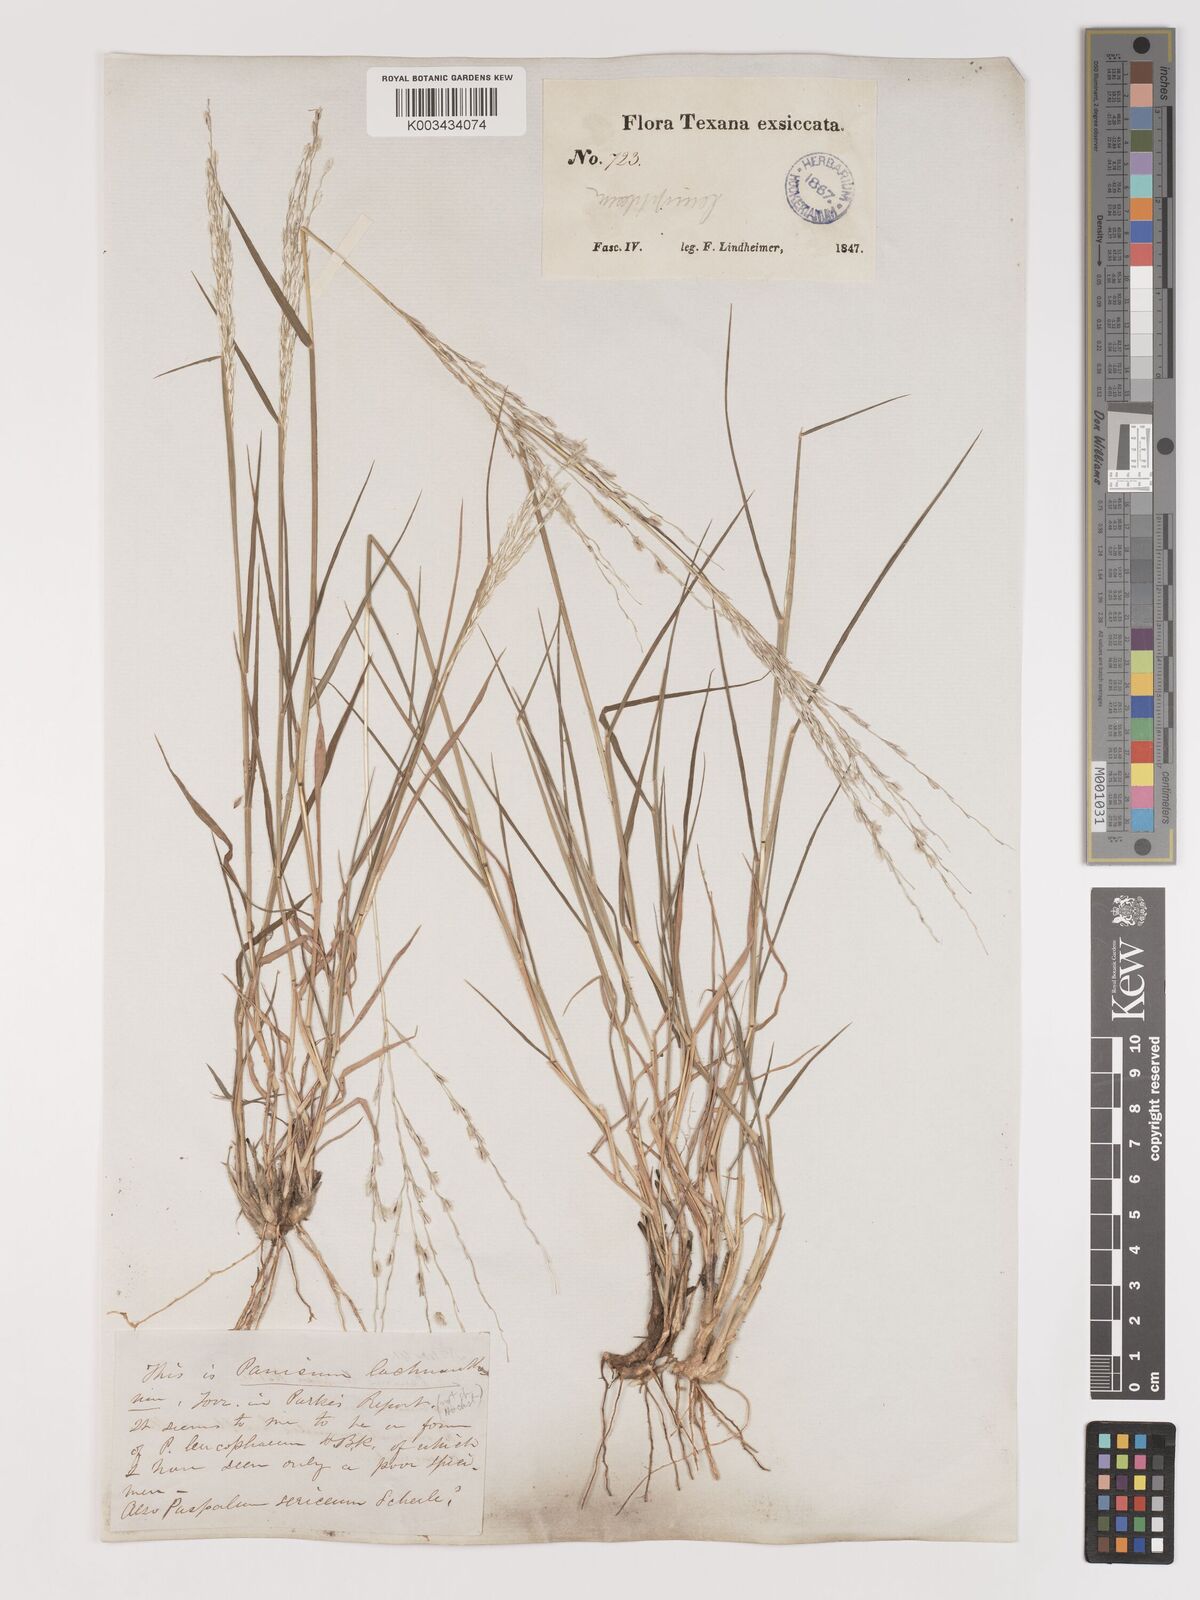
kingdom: Plantae
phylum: Tracheophyta
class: Liliopsida
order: Poales
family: Poaceae
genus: Digitaria
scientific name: Digitaria californica
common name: Arizona cottontop
